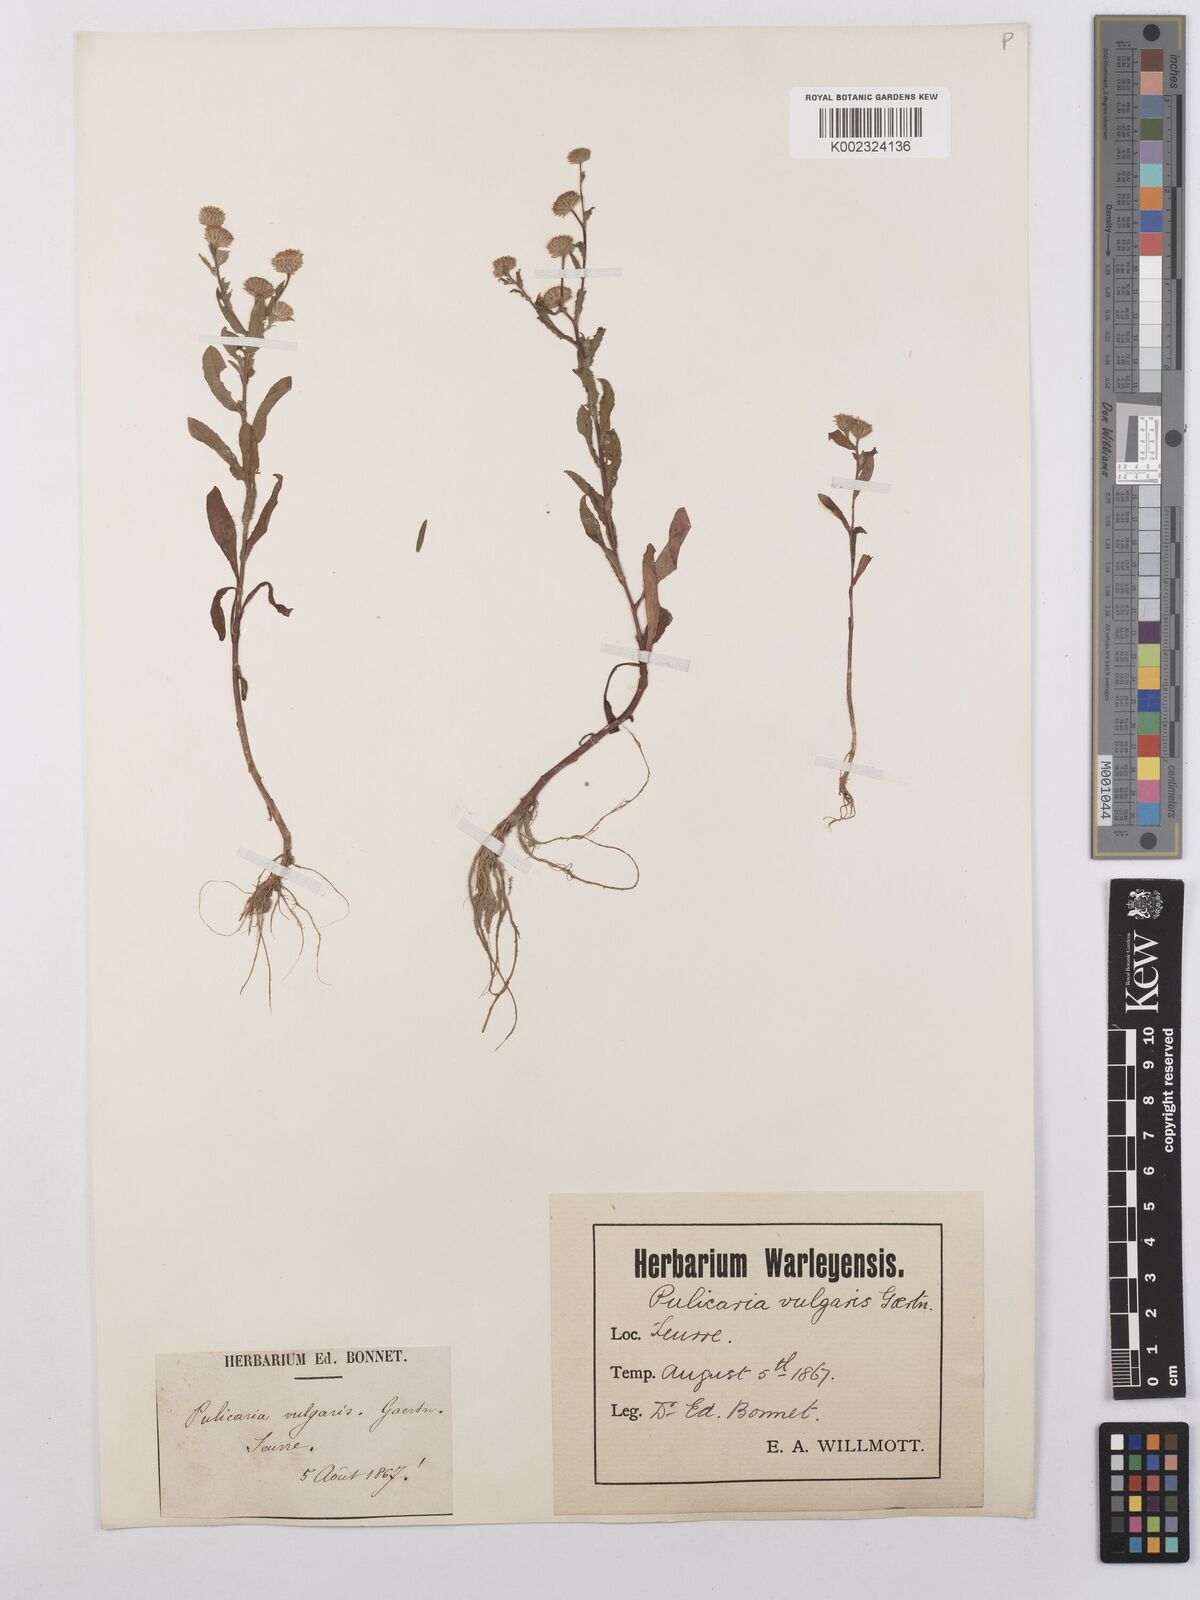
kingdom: Plantae
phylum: Tracheophyta
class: Magnoliopsida
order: Asterales
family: Asteraceae
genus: Pulicaria
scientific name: Pulicaria vulgaris
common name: Small fleabane
